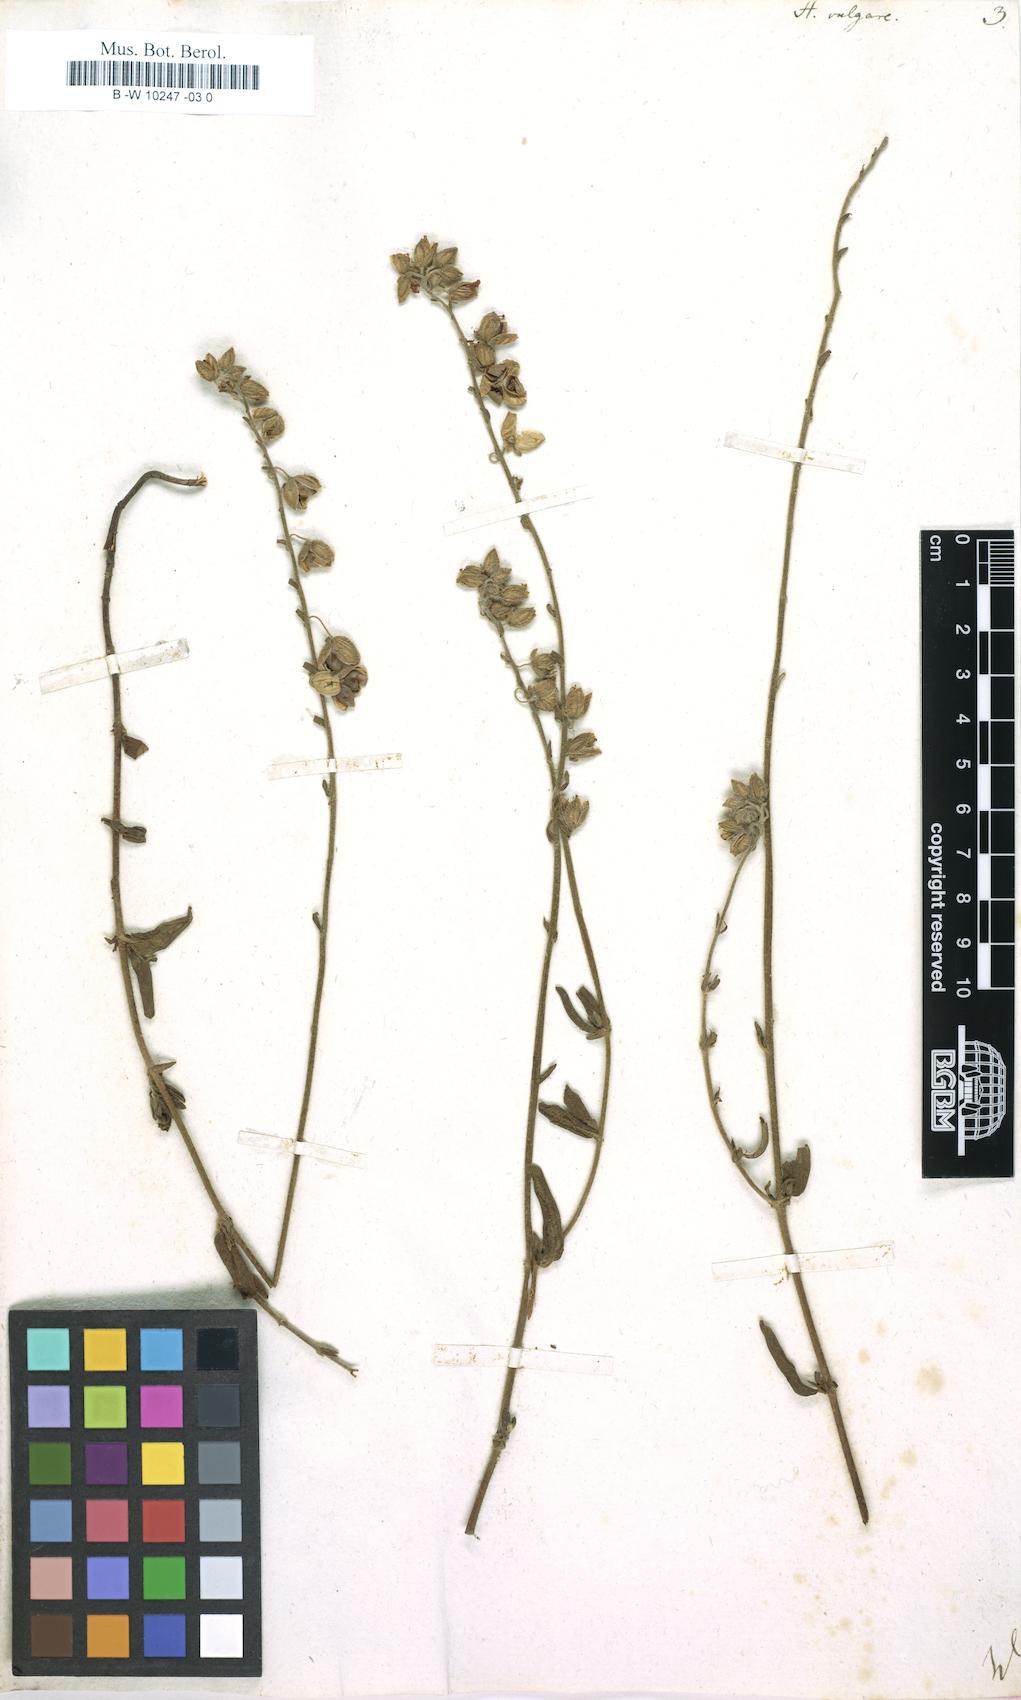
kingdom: Plantae
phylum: Tracheophyta
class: Magnoliopsida
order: Malvales
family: Cistaceae
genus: Helianthemum
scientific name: Helianthemum nummularium
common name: Common rock-rose
